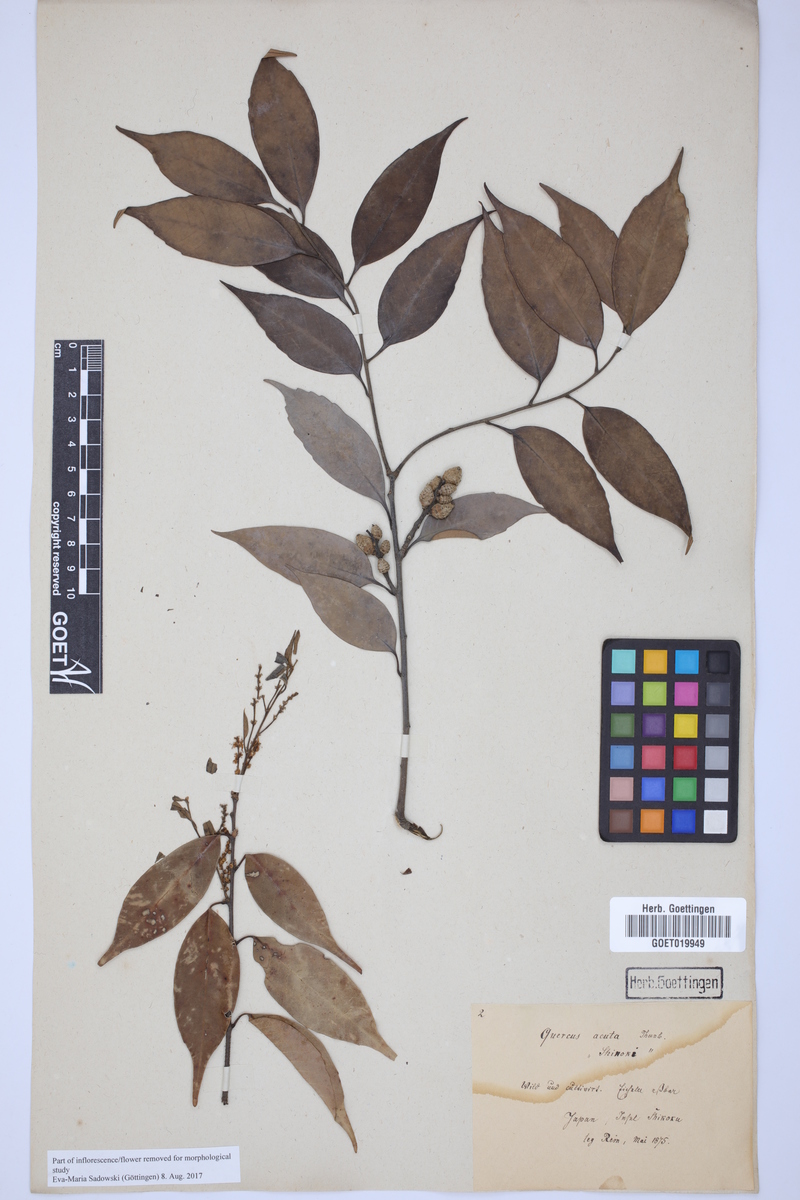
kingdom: Plantae
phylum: Tracheophyta
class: Magnoliopsida
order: Fagales
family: Fagaceae
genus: Quercus
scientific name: Quercus acuta
